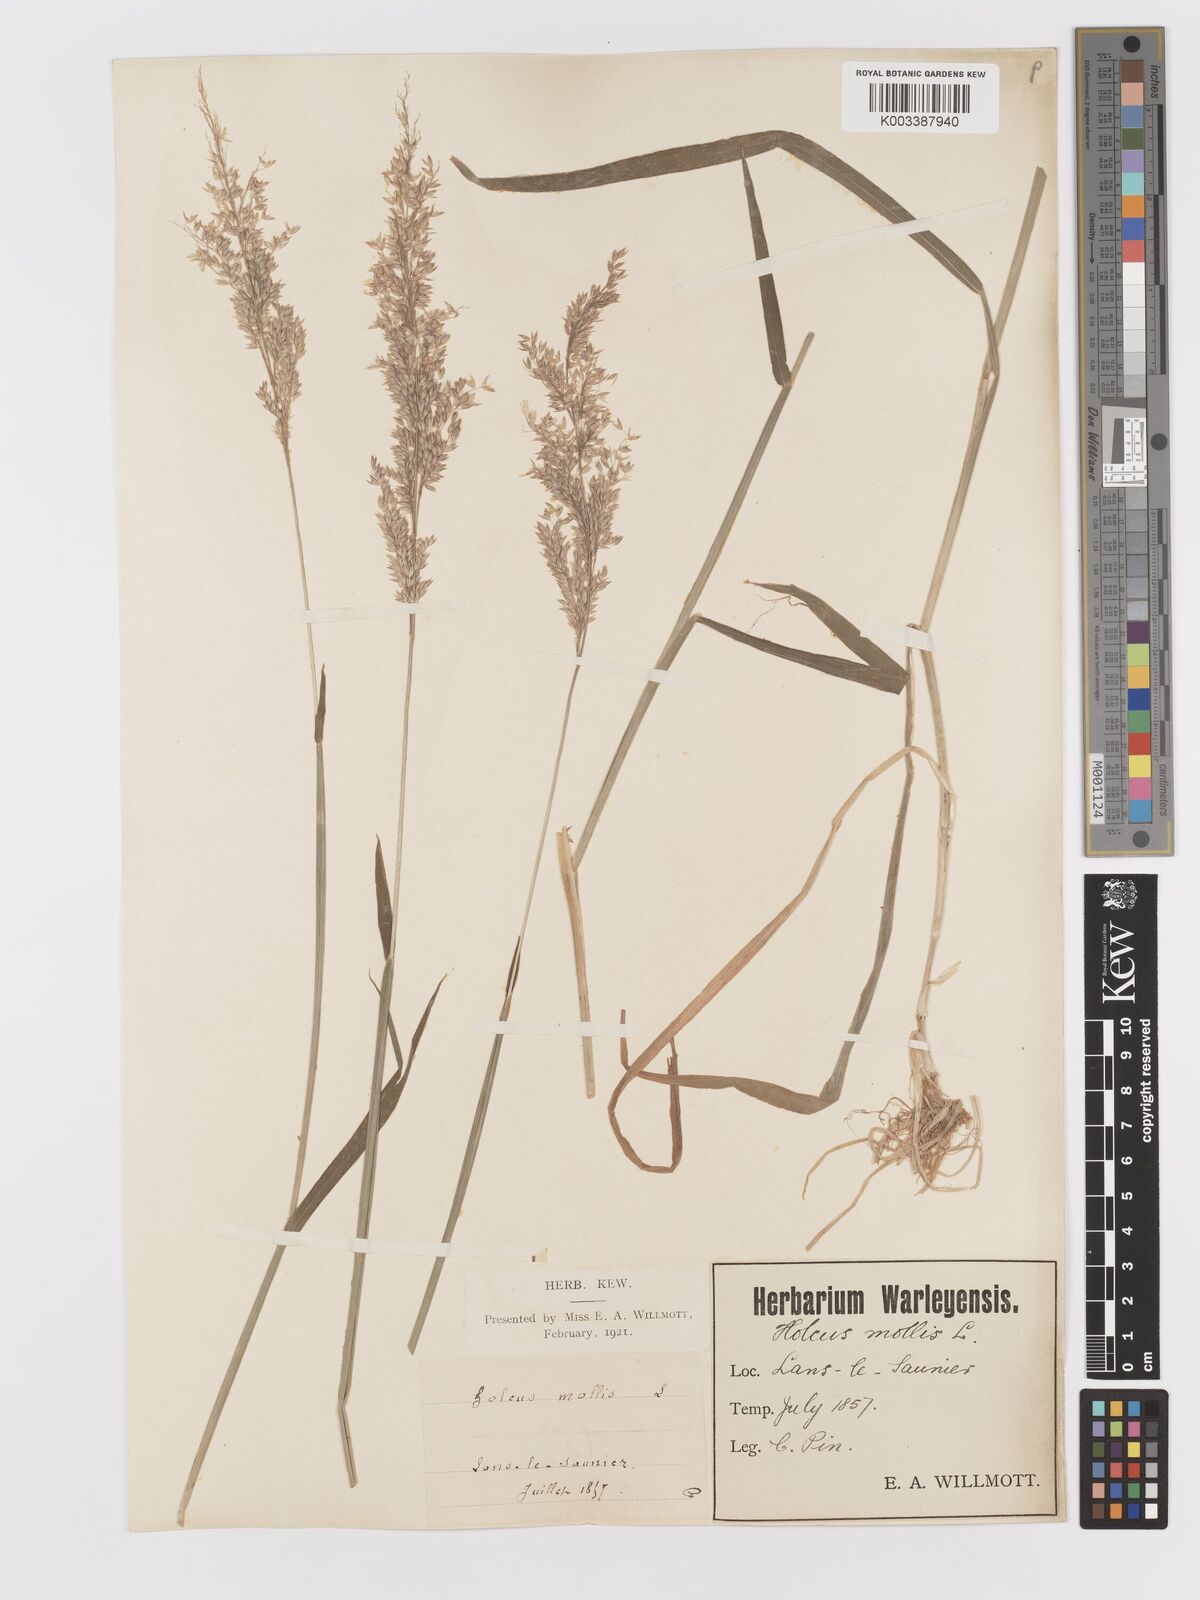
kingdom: Plantae
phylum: Tracheophyta
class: Liliopsida
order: Poales
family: Poaceae
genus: Holcus
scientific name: Holcus lanatus
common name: Yorkshire-fog
